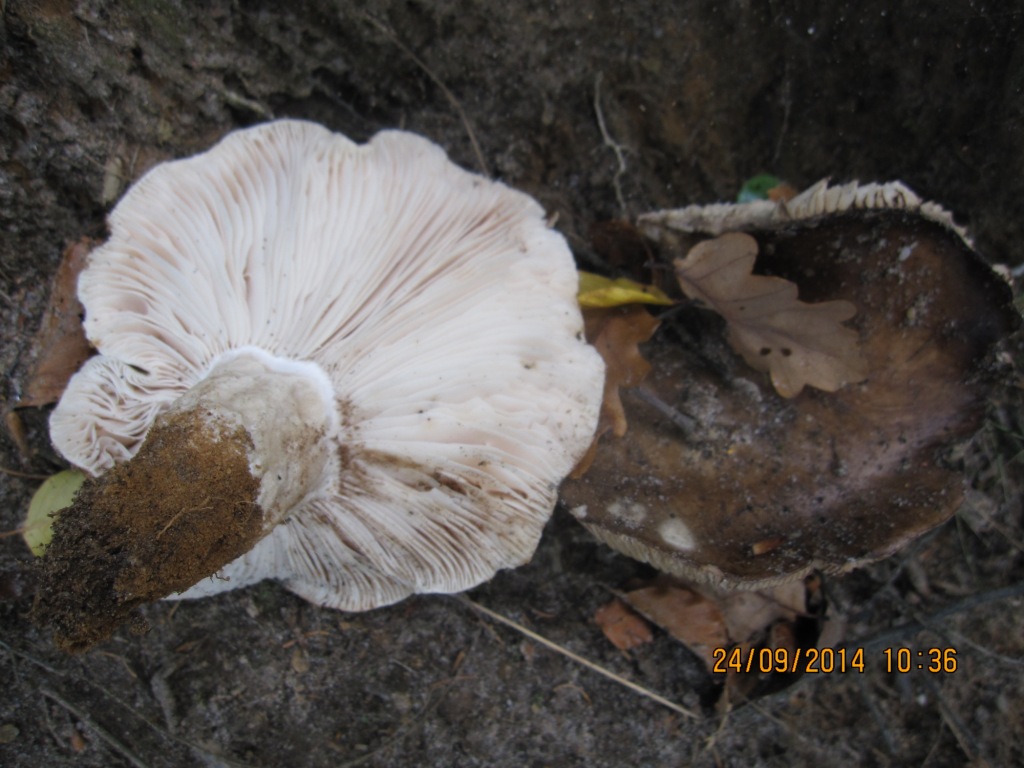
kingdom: Fungi
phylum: Basidiomycota
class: Agaricomycetes
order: Russulales
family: Russulaceae
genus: Russula
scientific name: Russula adusta
